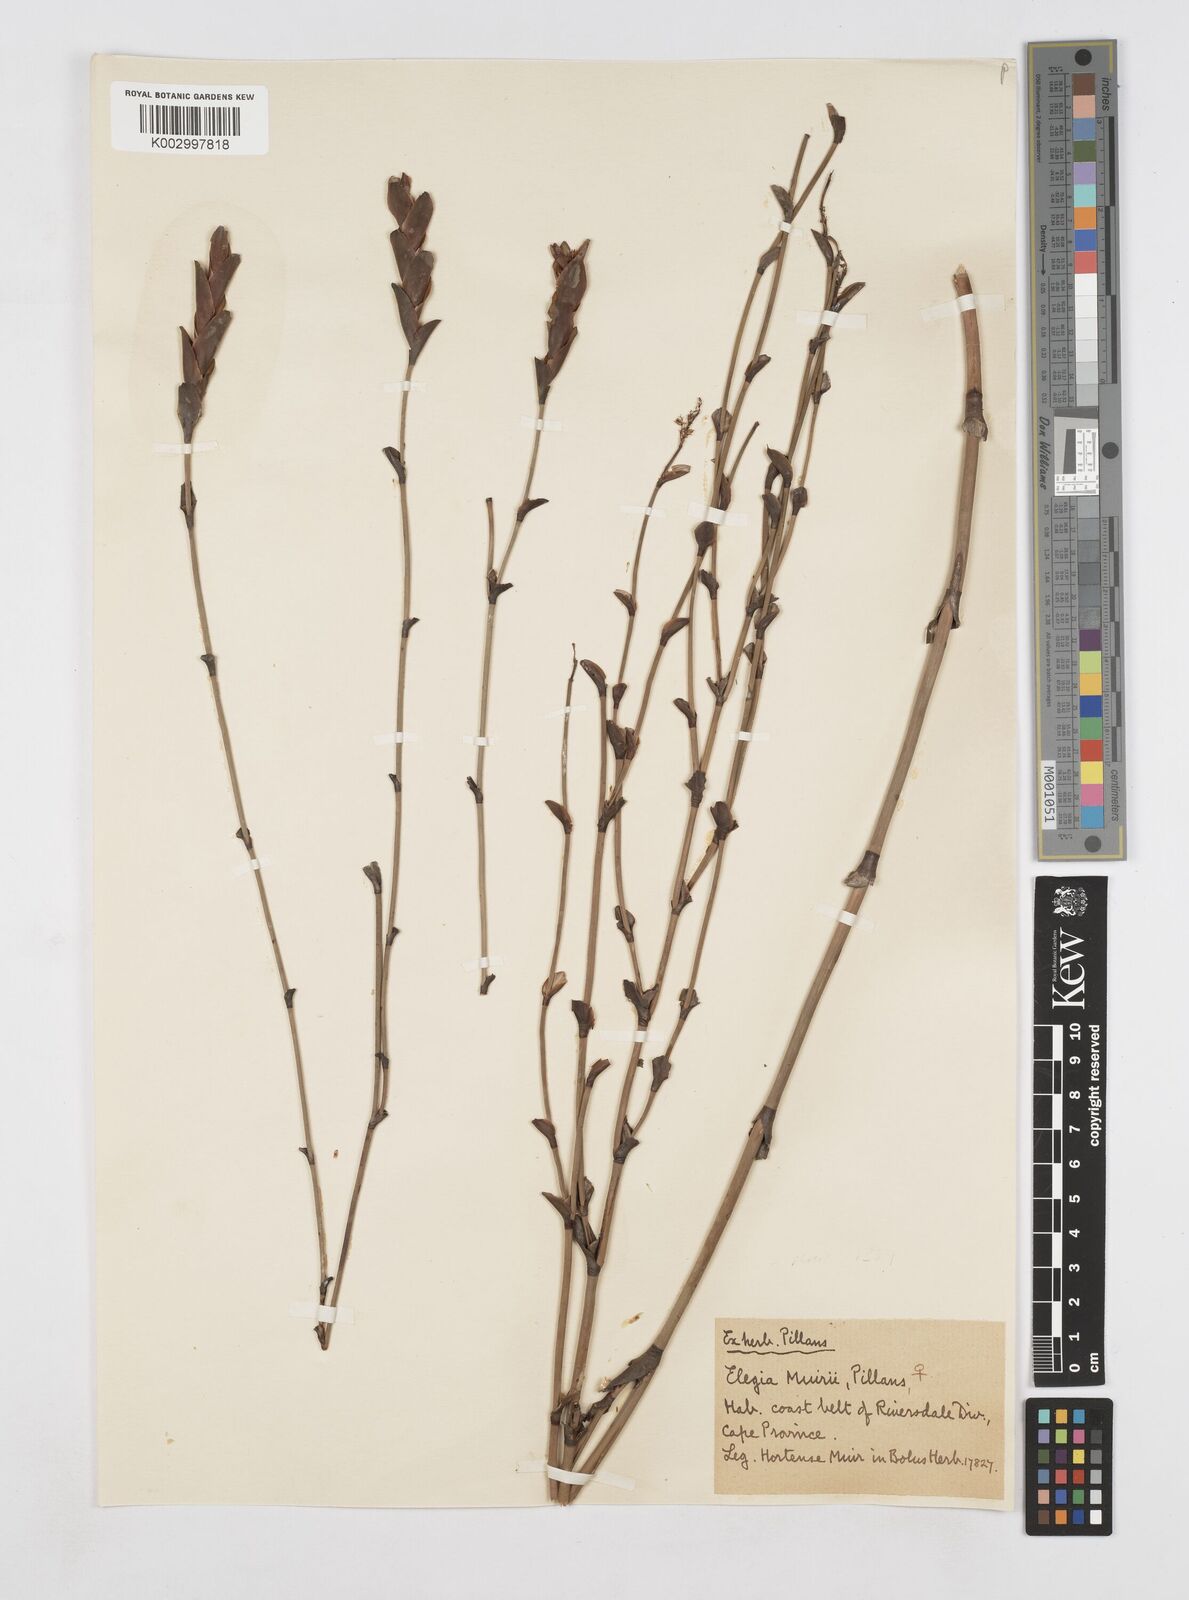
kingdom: Plantae
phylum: Tracheophyta
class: Liliopsida
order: Poales
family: Restionaceae
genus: Elegia
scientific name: Elegia muirii
